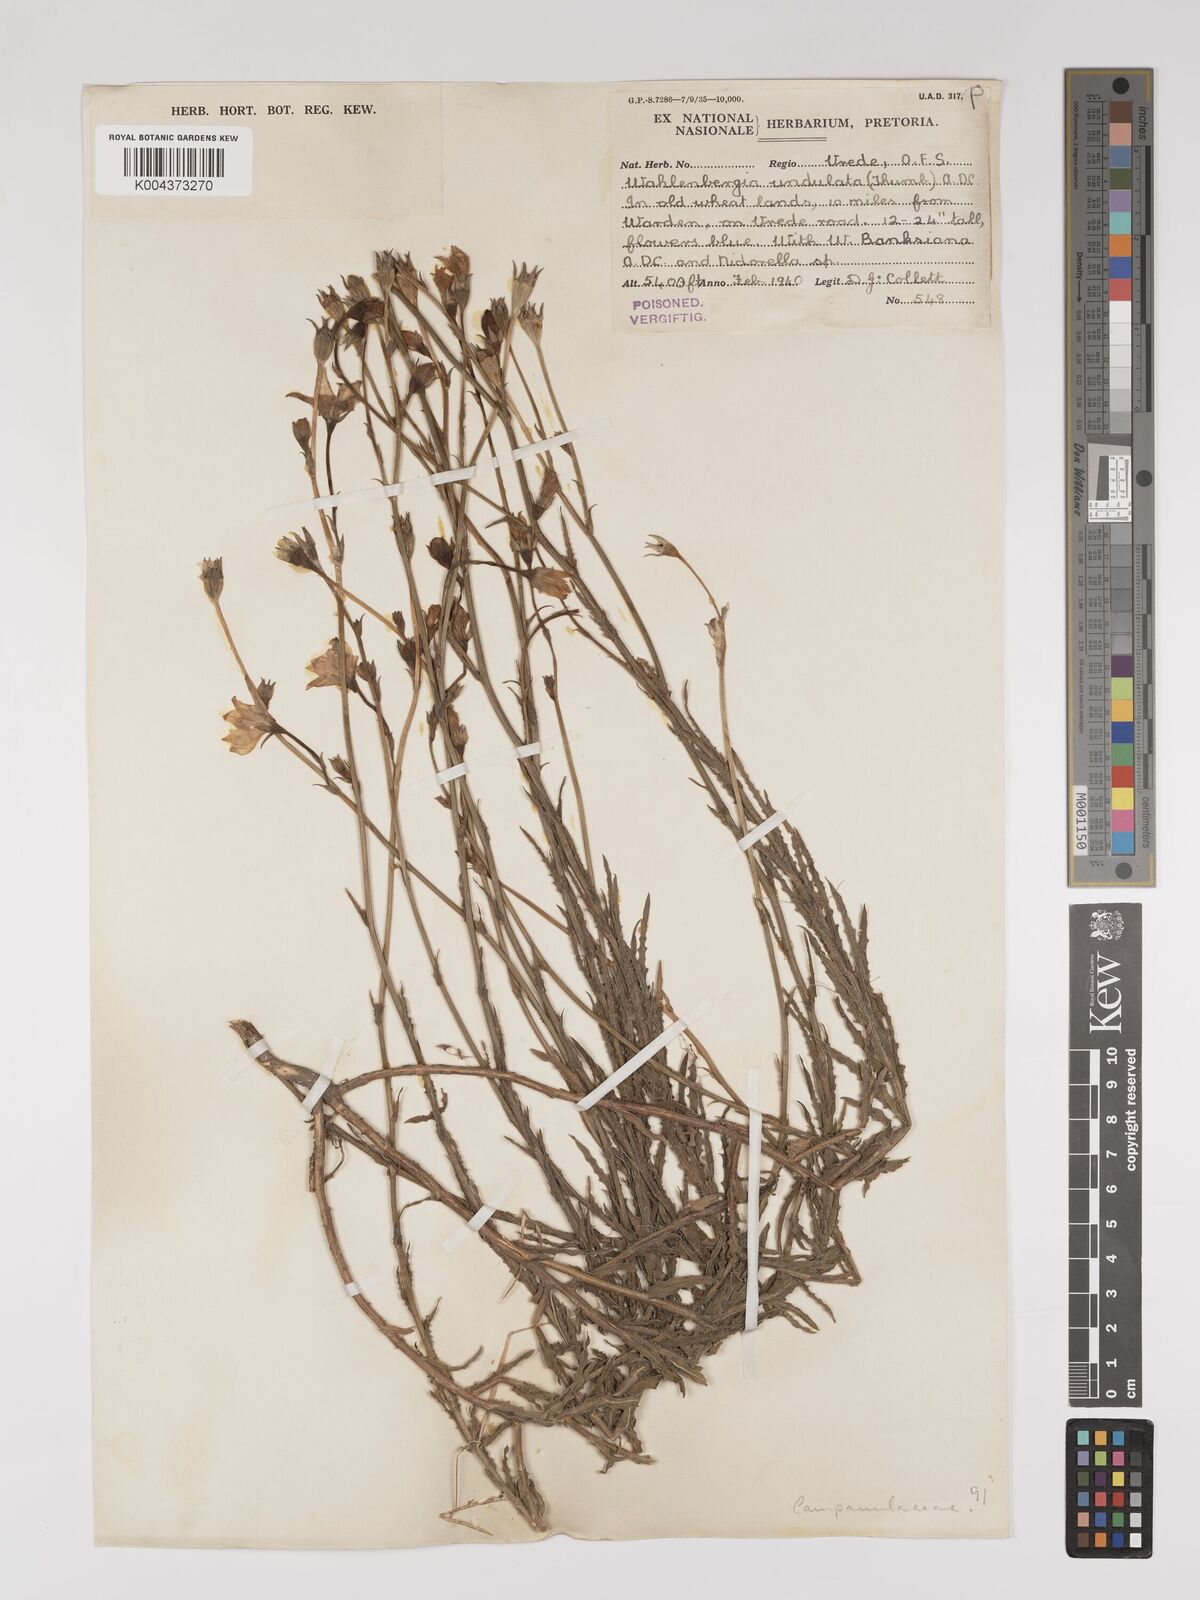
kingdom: Plantae
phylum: Tracheophyta
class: Magnoliopsida
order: Asterales
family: Campanulaceae
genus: Wahlenbergia
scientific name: Wahlenbergia undulata
